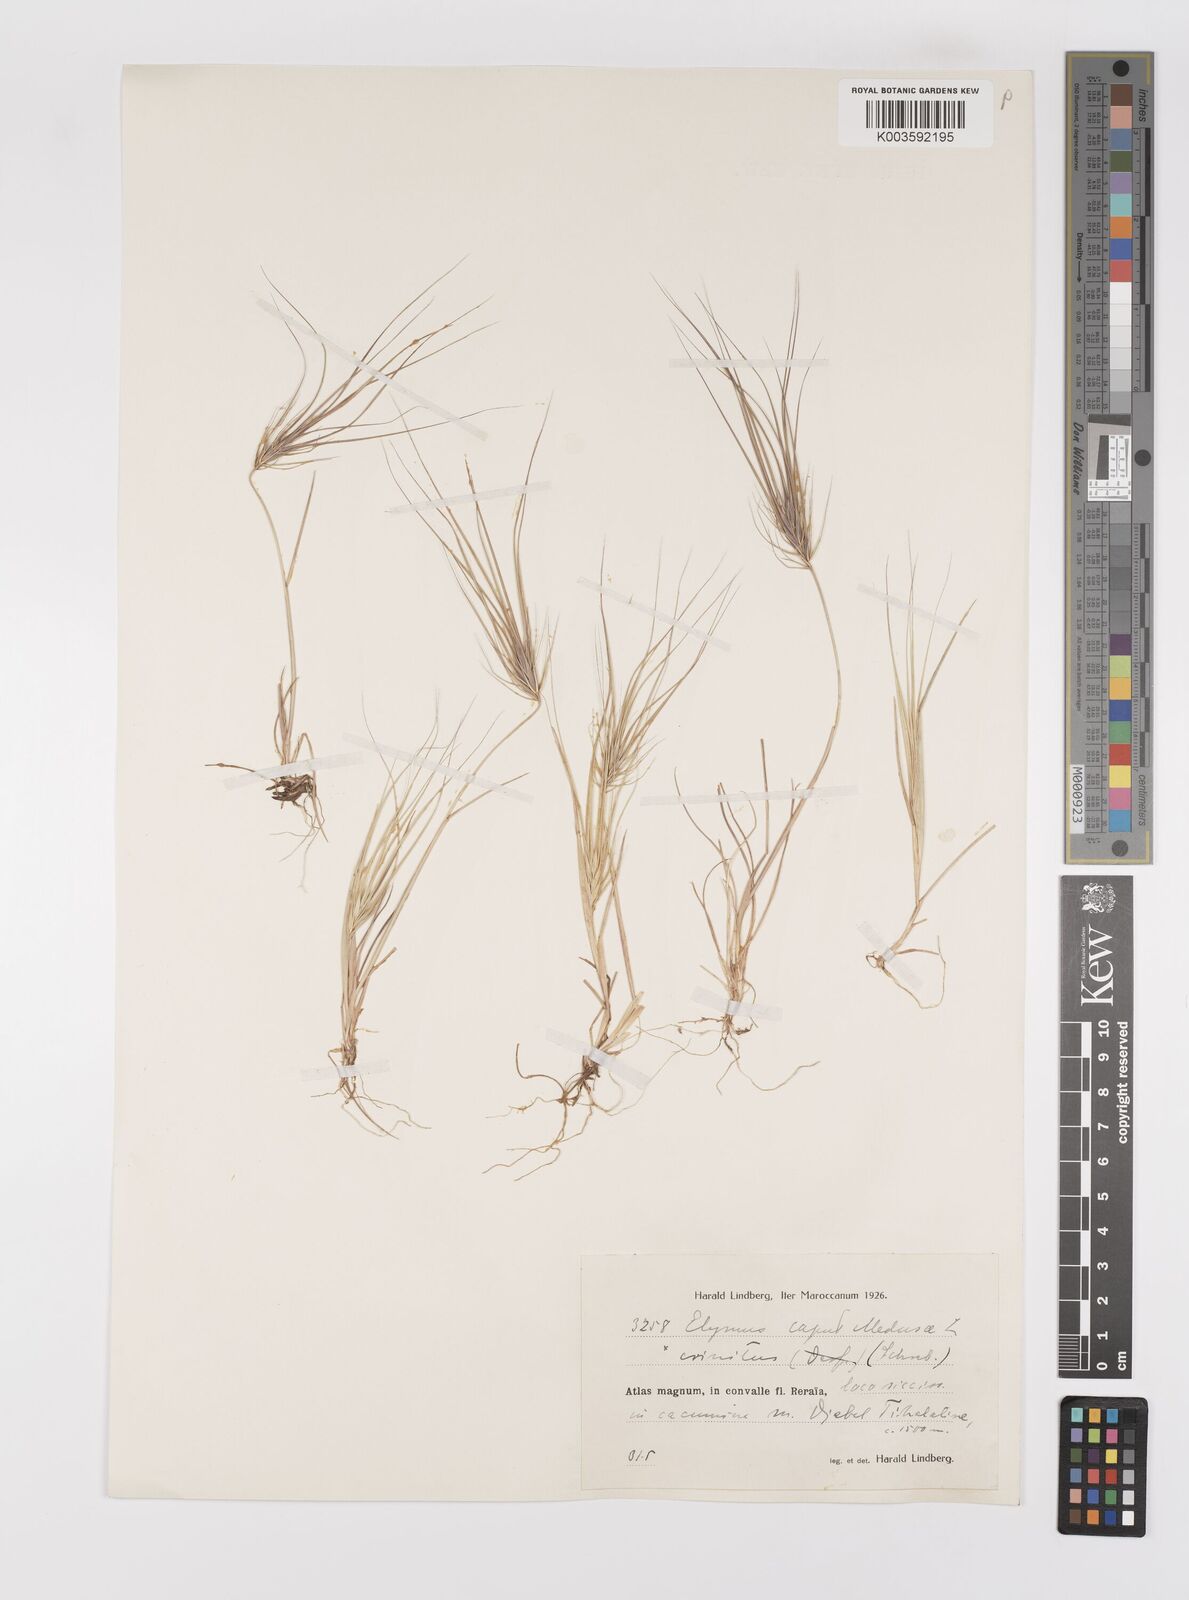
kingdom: Plantae
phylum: Tracheophyta
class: Liliopsida
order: Poales
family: Poaceae
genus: Taeniatherum
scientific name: Taeniatherum caput-medusae
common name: Medusahead
